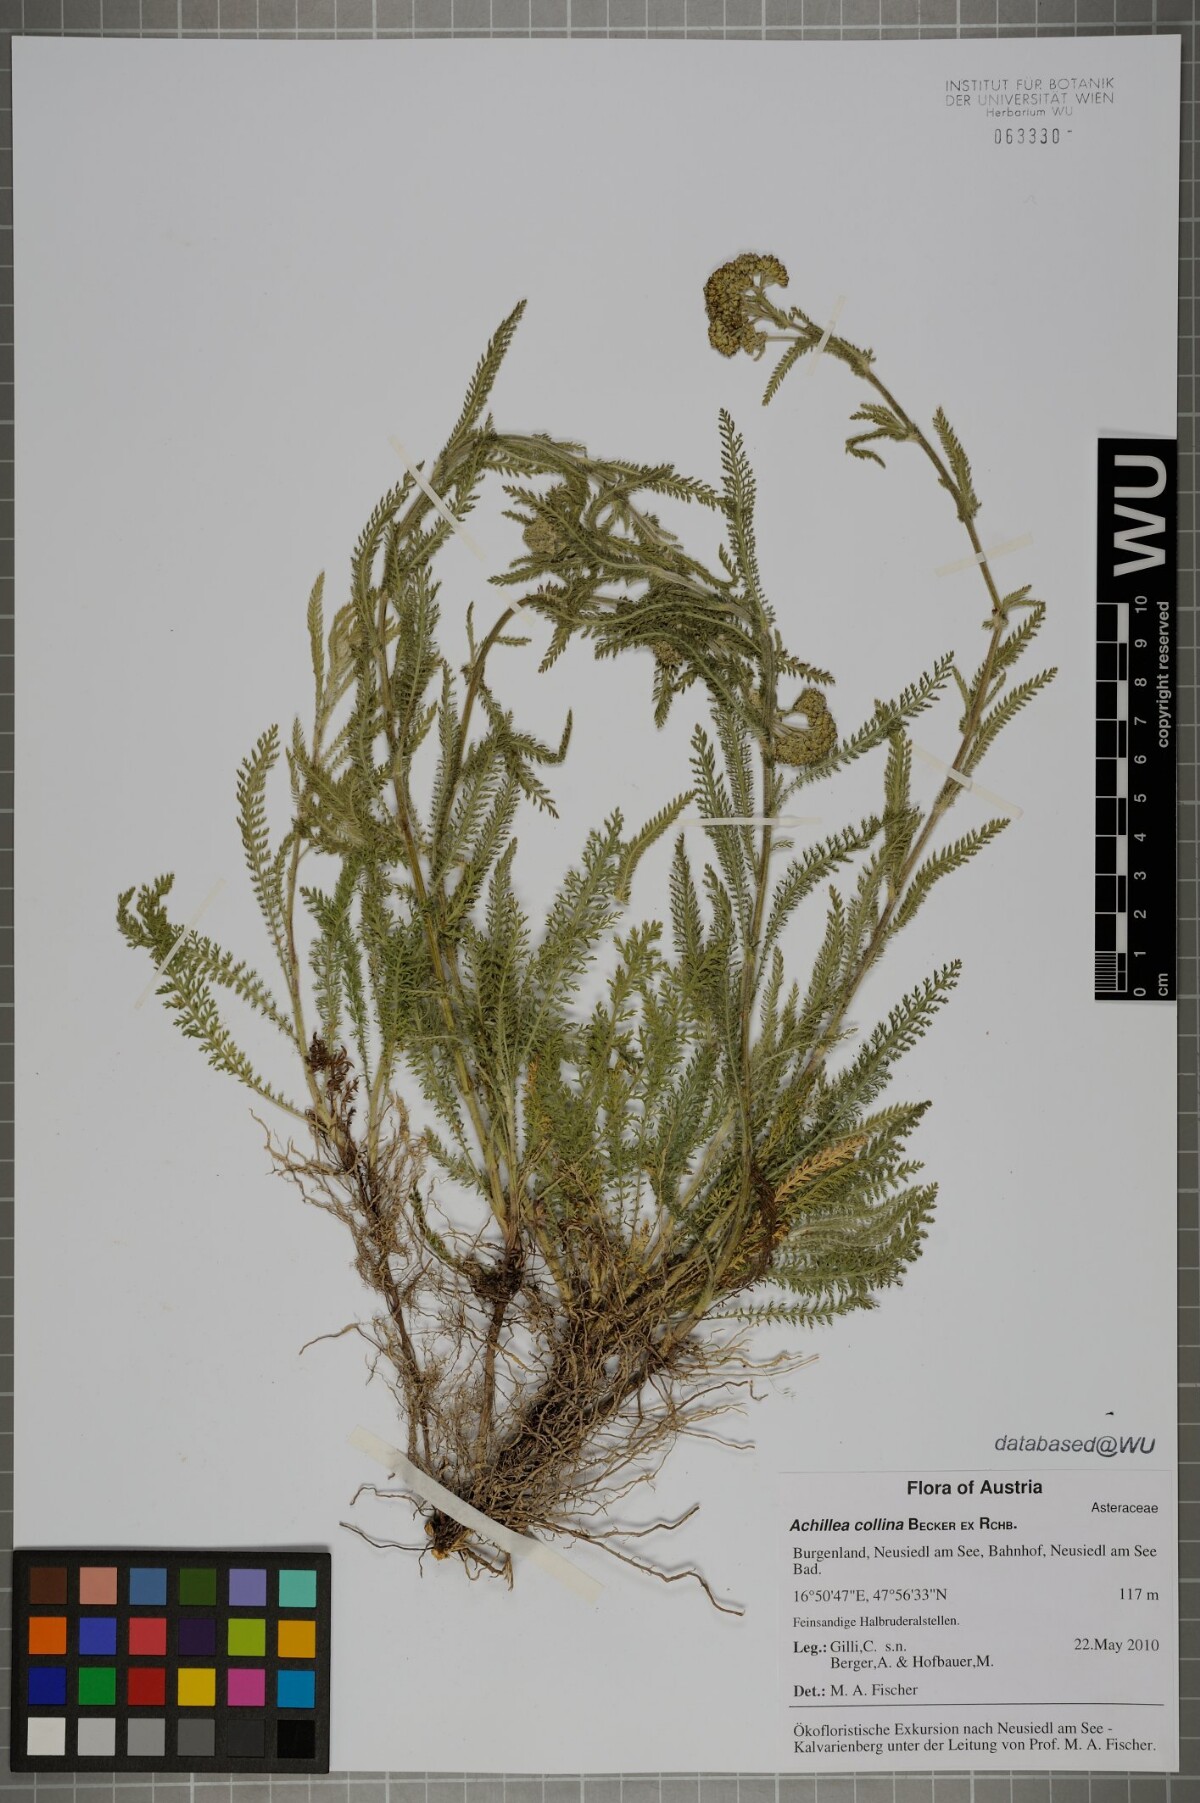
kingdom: Plantae
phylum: Tracheophyta
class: Magnoliopsida
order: Asterales
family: Asteraceae
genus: Achillea
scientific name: Achillea collina
